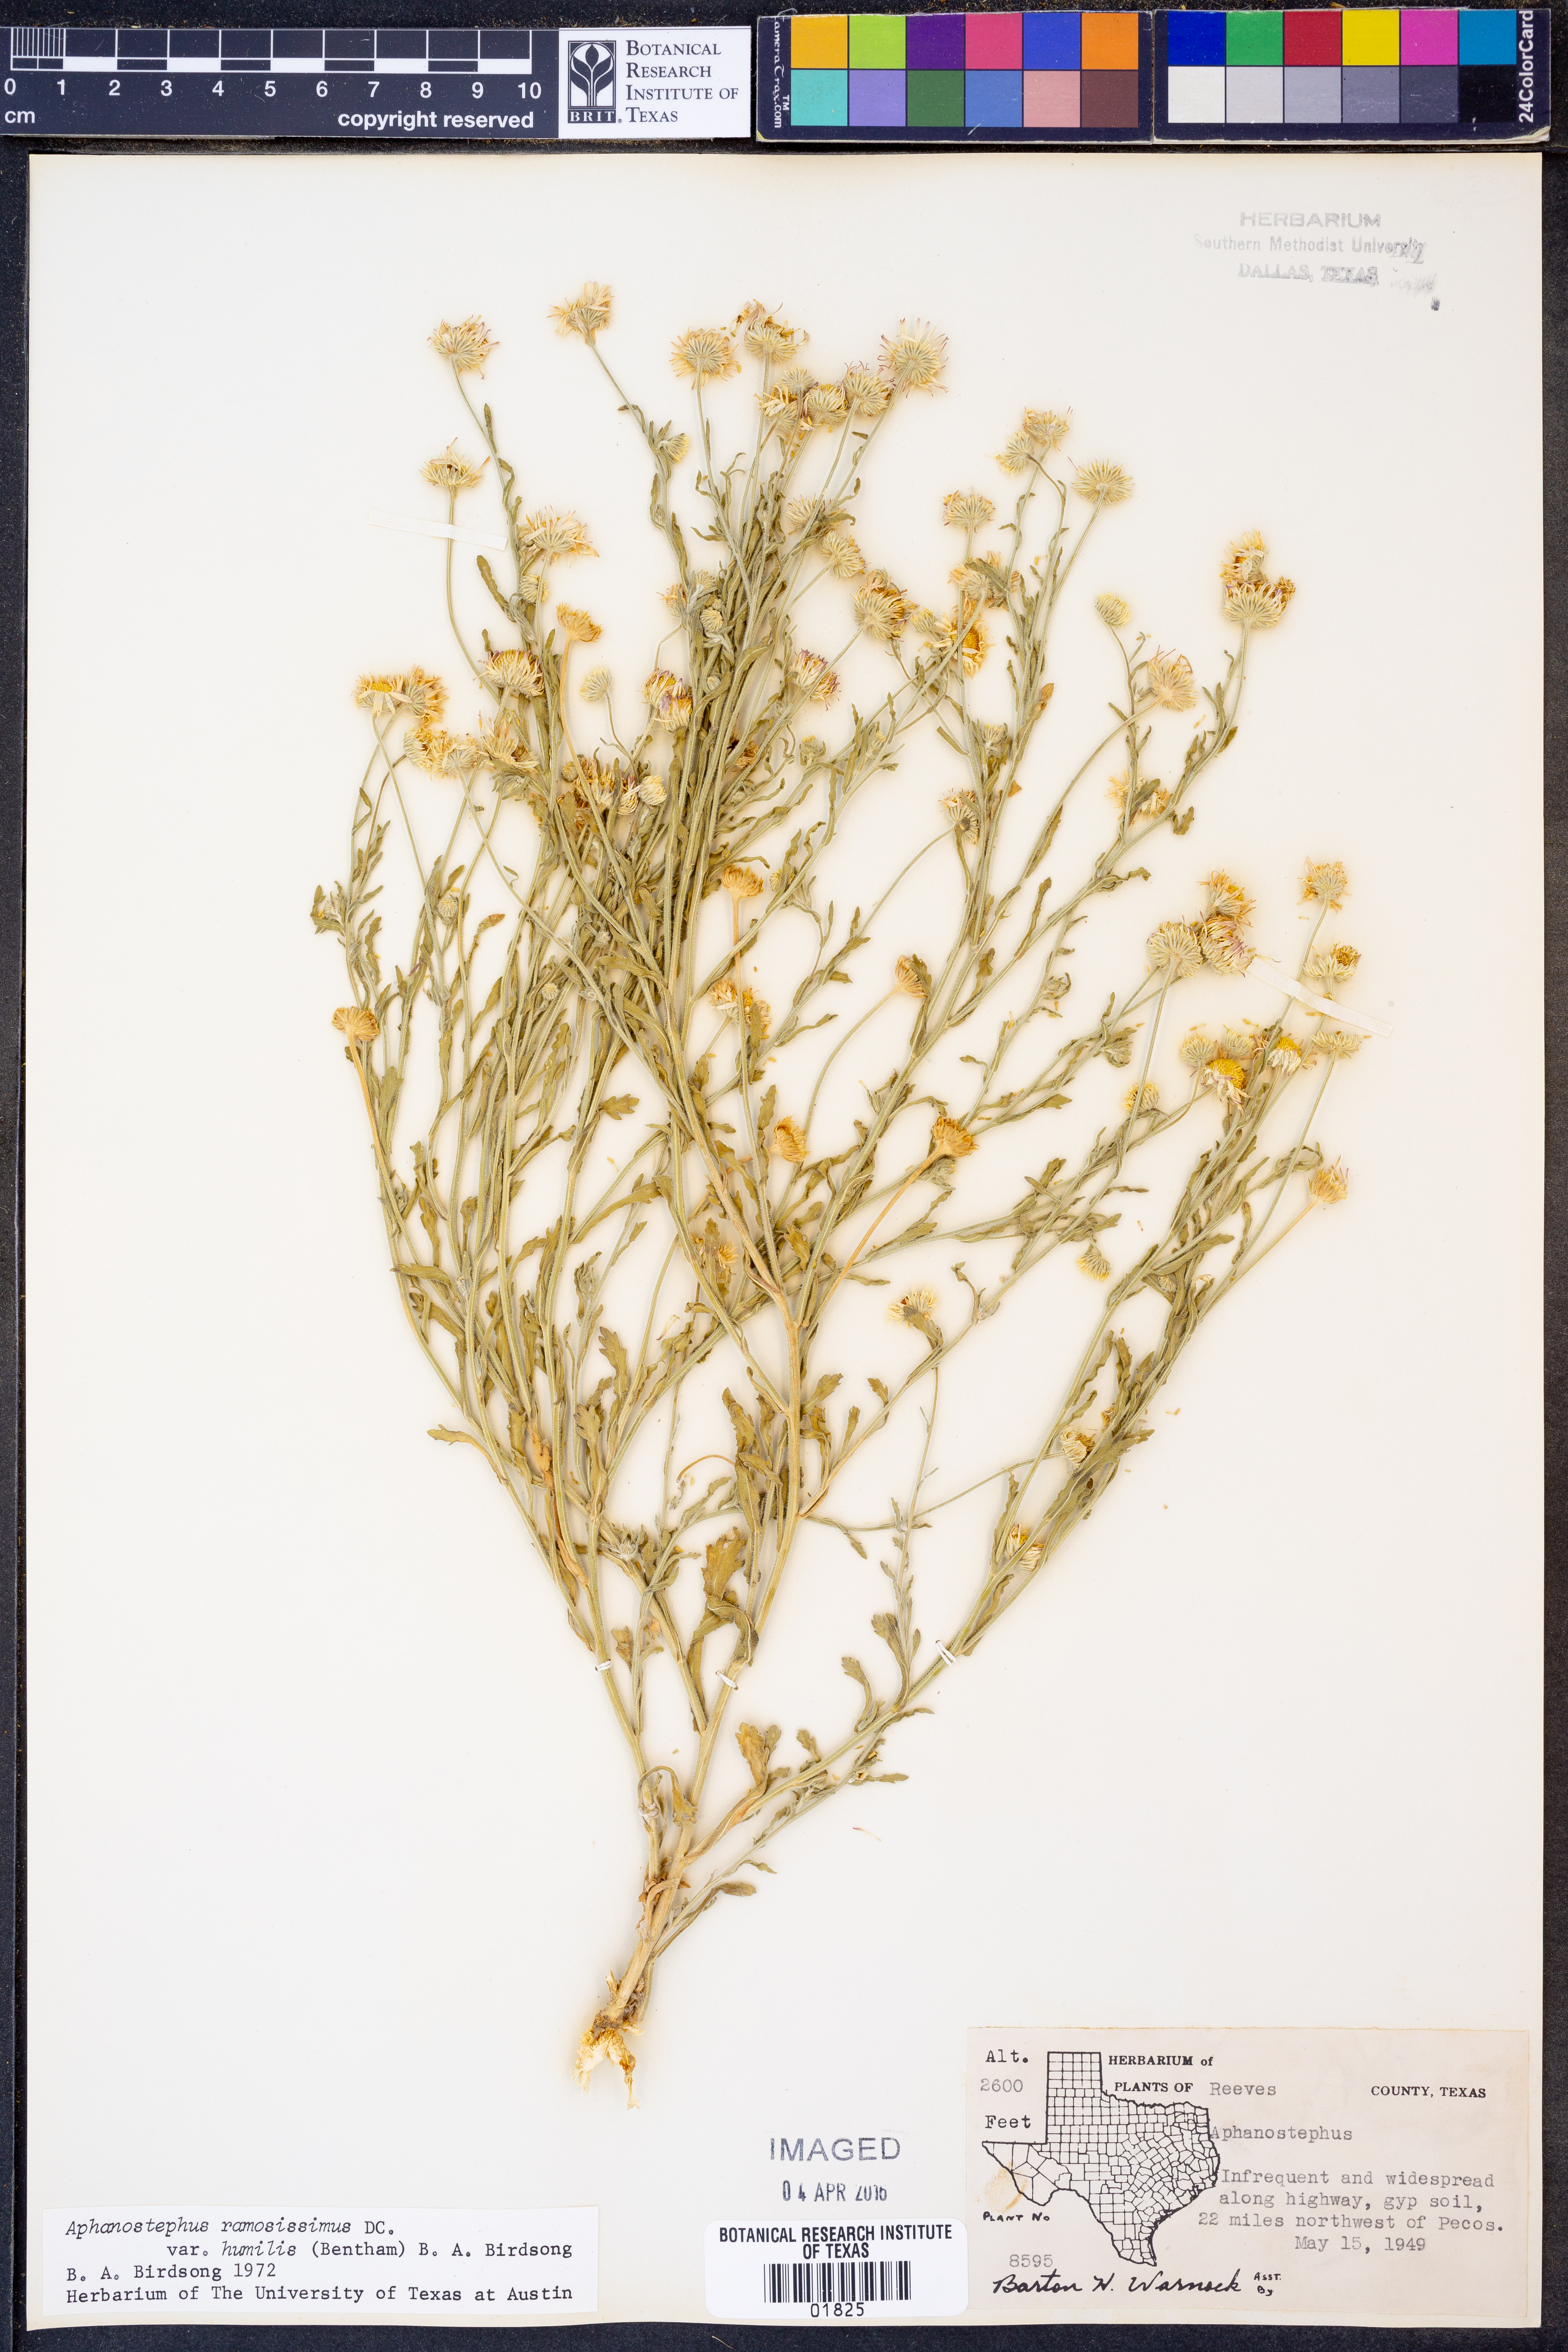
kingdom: Plantae
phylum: Tracheophyta
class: Magnoliopsida
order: Asterales
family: Asteraceae
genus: Aphanostephus
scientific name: Aphanostephus ramosissimus
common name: Plains lazy daisy
